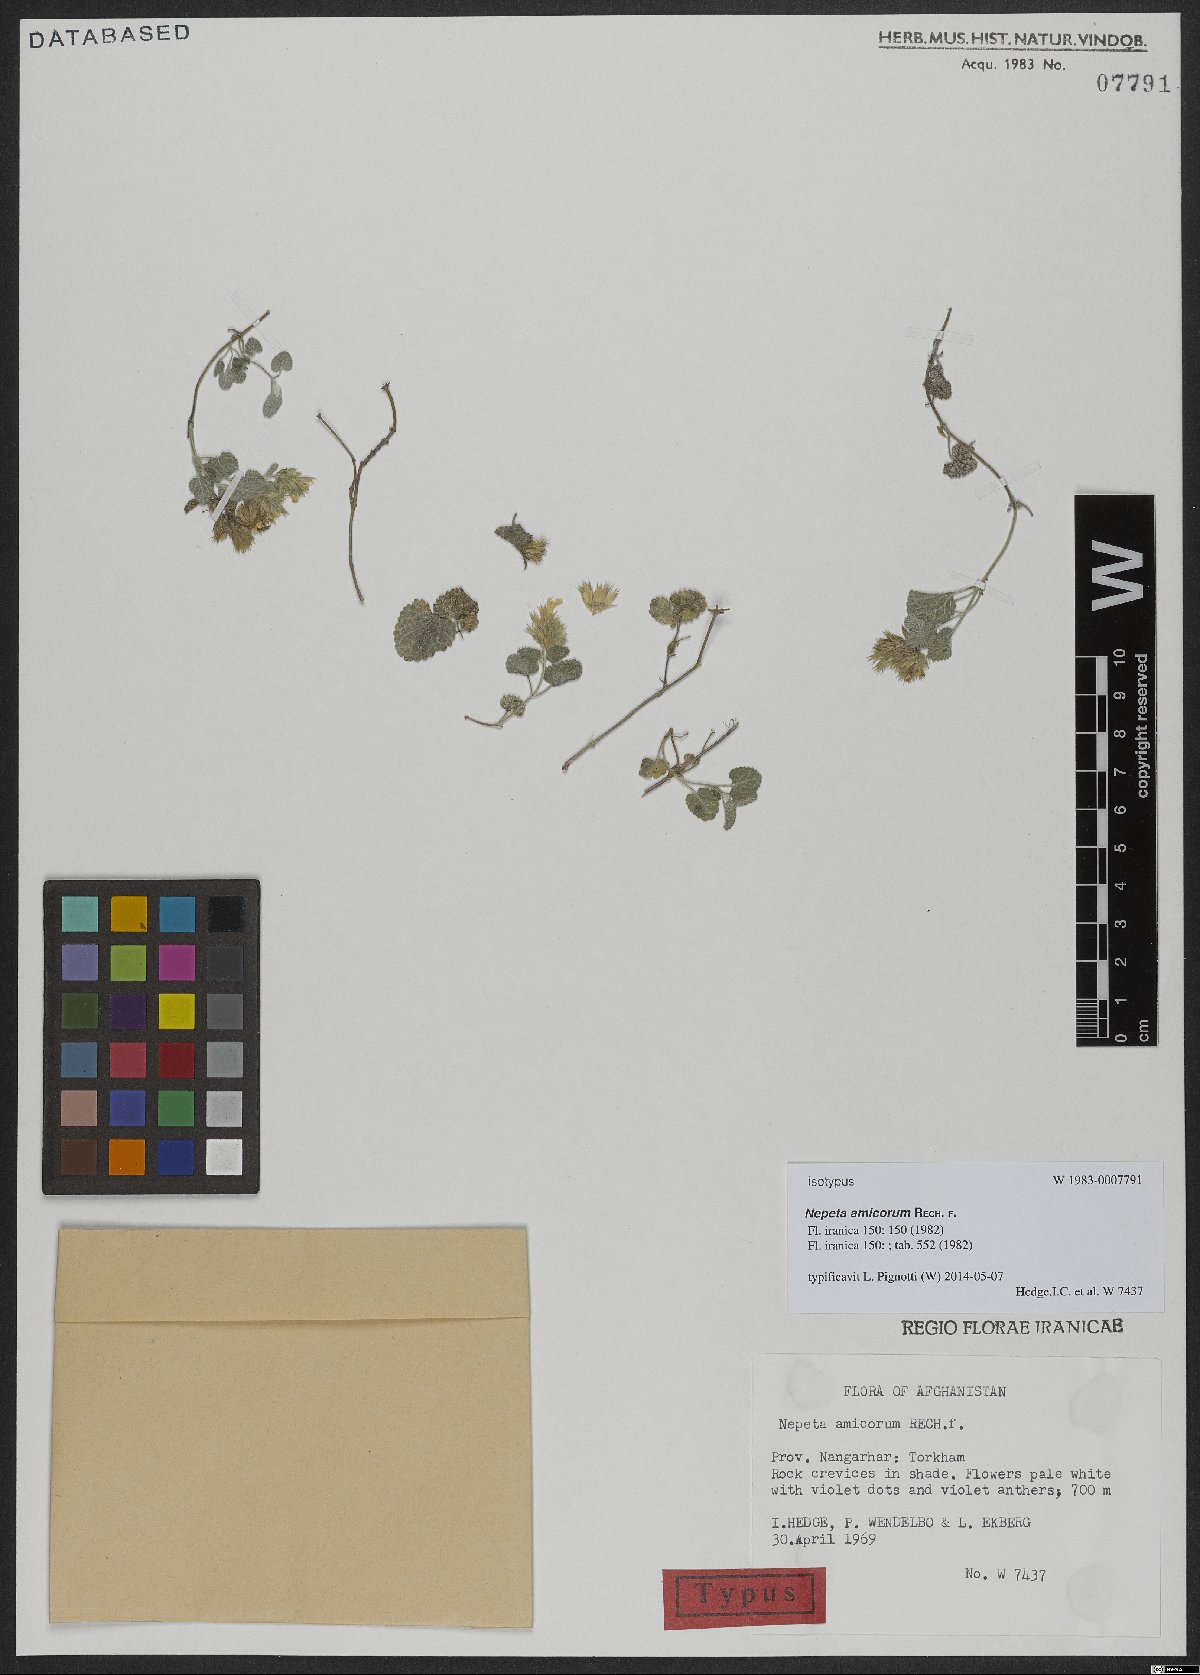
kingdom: Plantae
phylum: Tracheophyta
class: Magnoliopsida
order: Lamiales
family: Lamiaceae
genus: Nepeta
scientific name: Nepeta amicorum
